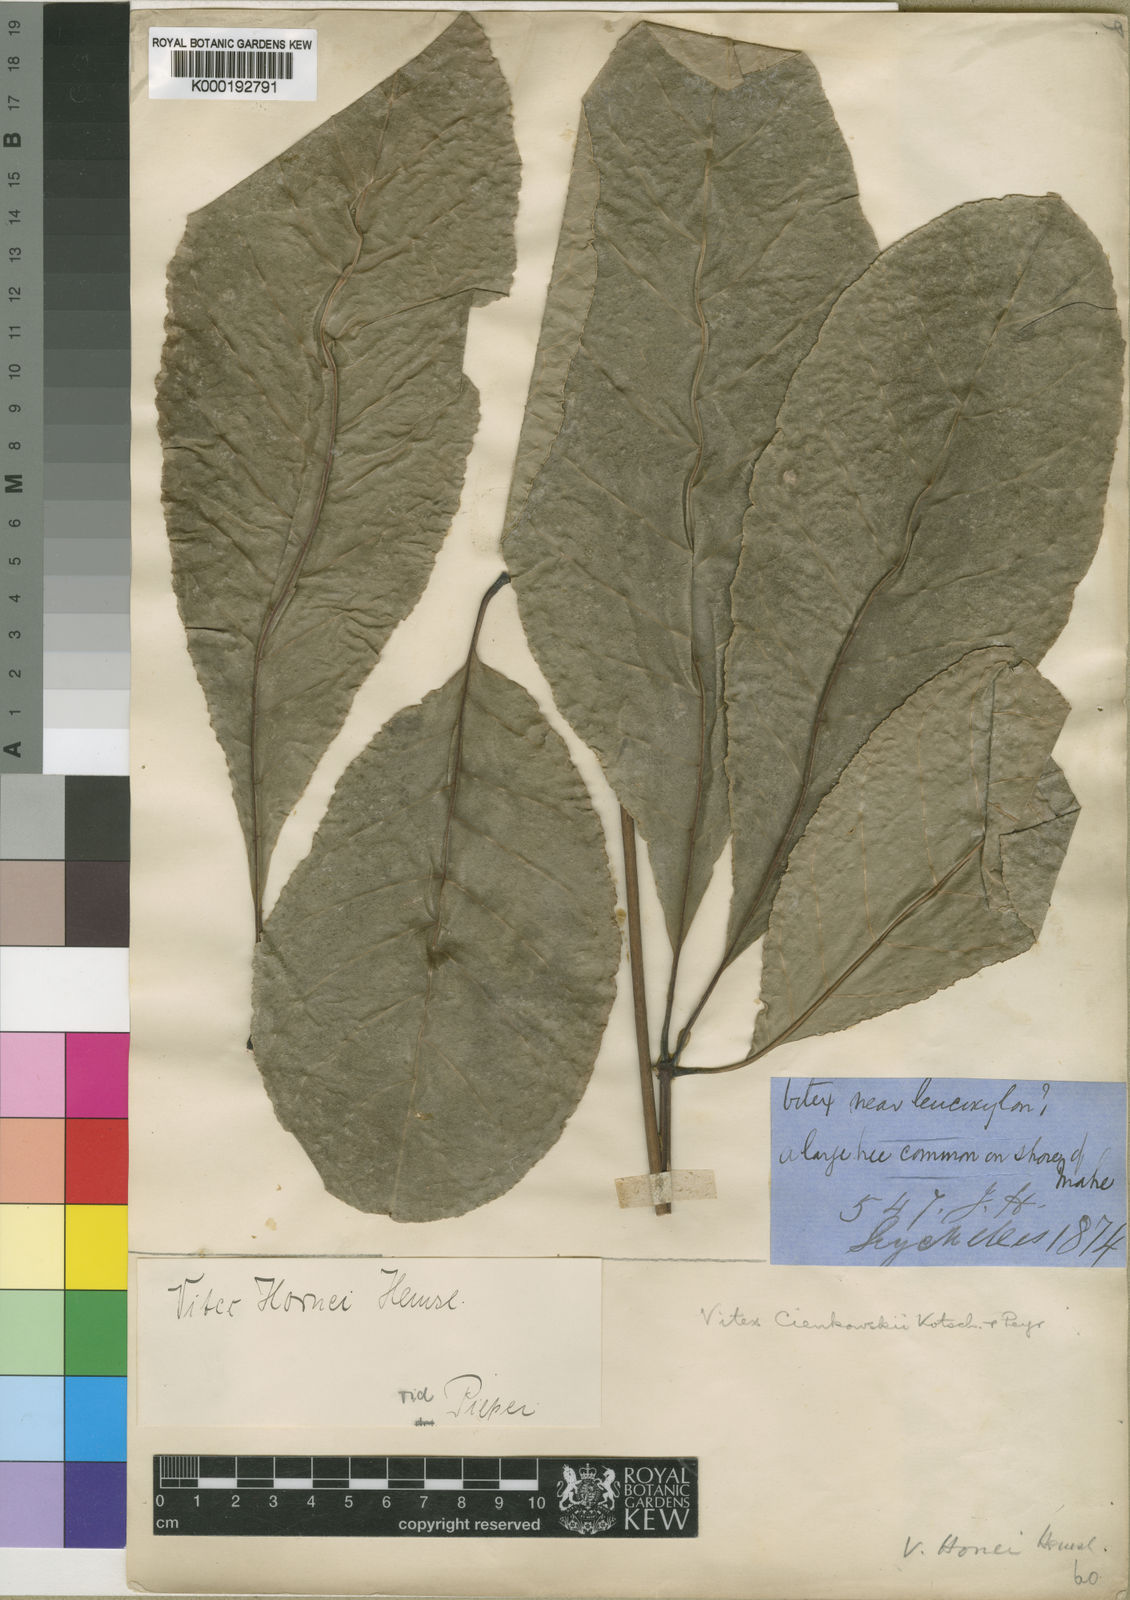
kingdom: Plantae
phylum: Tracheophyta
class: Magnoliopsida
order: Lamiales
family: Lamiaceae
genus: Vitex
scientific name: Vitex doniana
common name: Black plum
